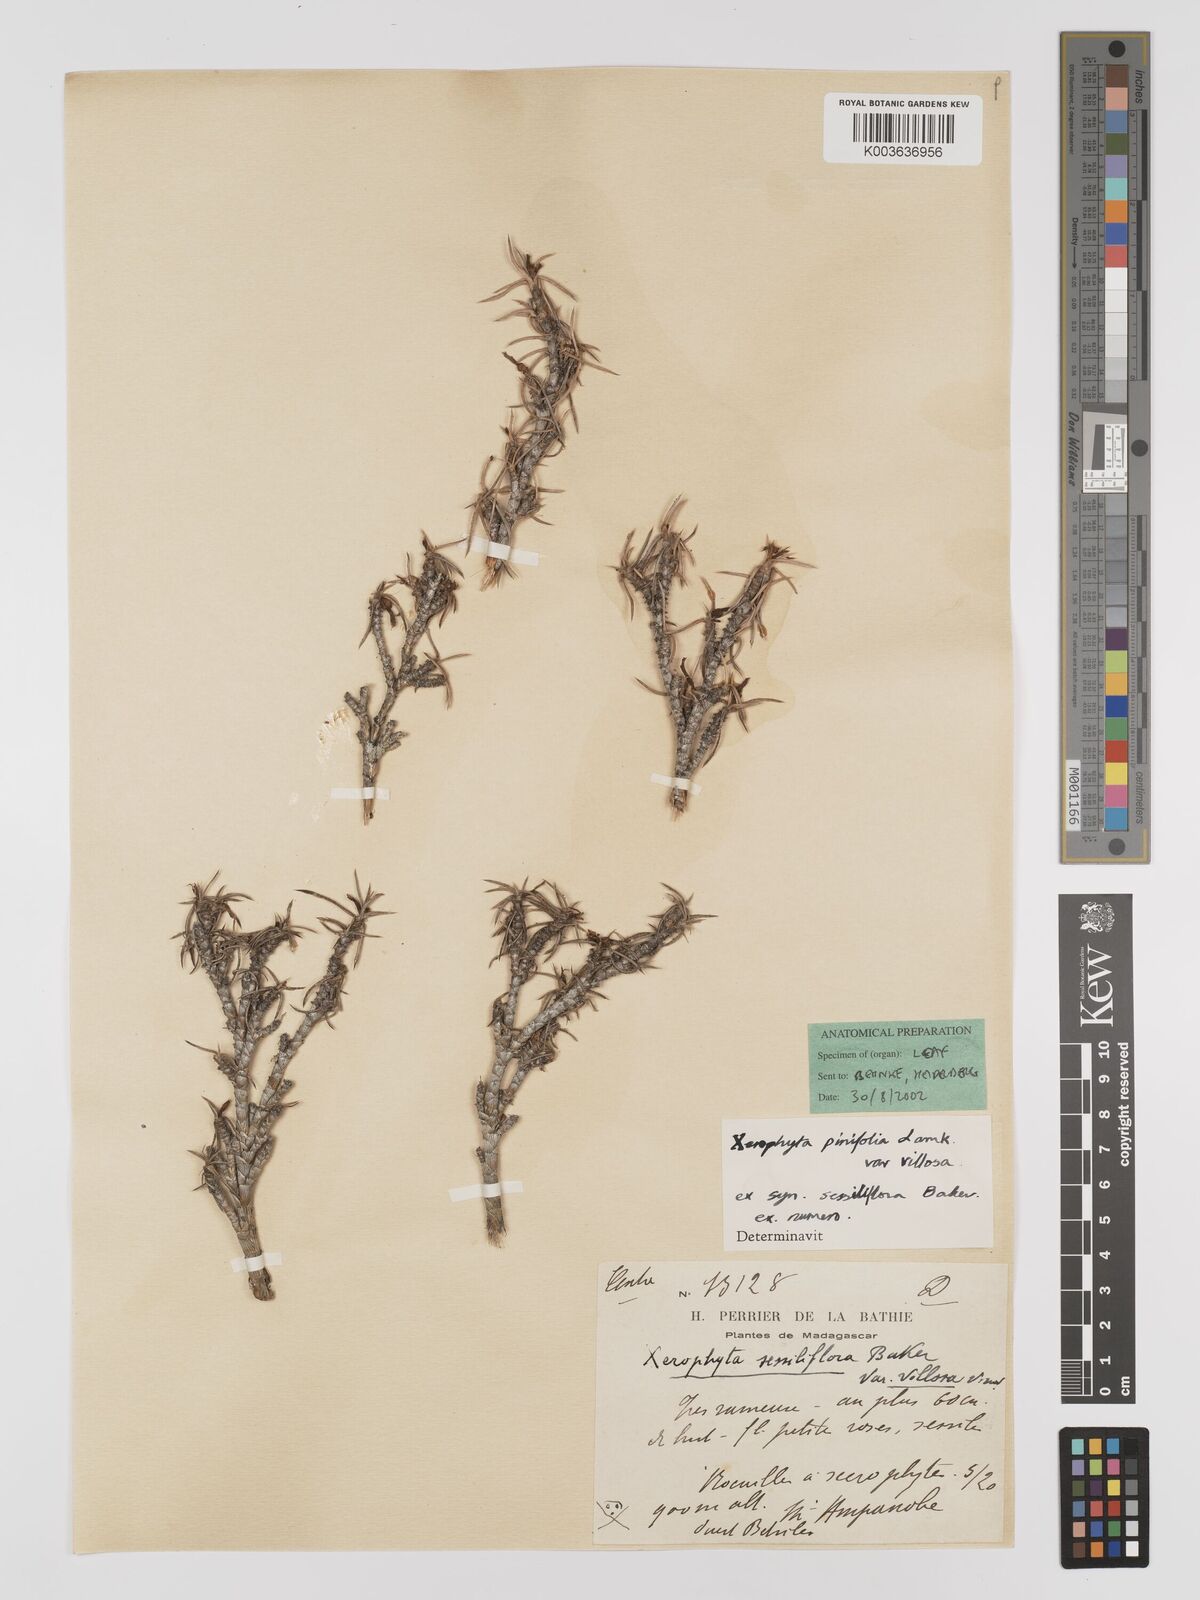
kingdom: Plantae
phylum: Tracheophyta
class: Liliopsida
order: Pandanales
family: Velloziaceae
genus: Xerophyta
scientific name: Xerophyta
